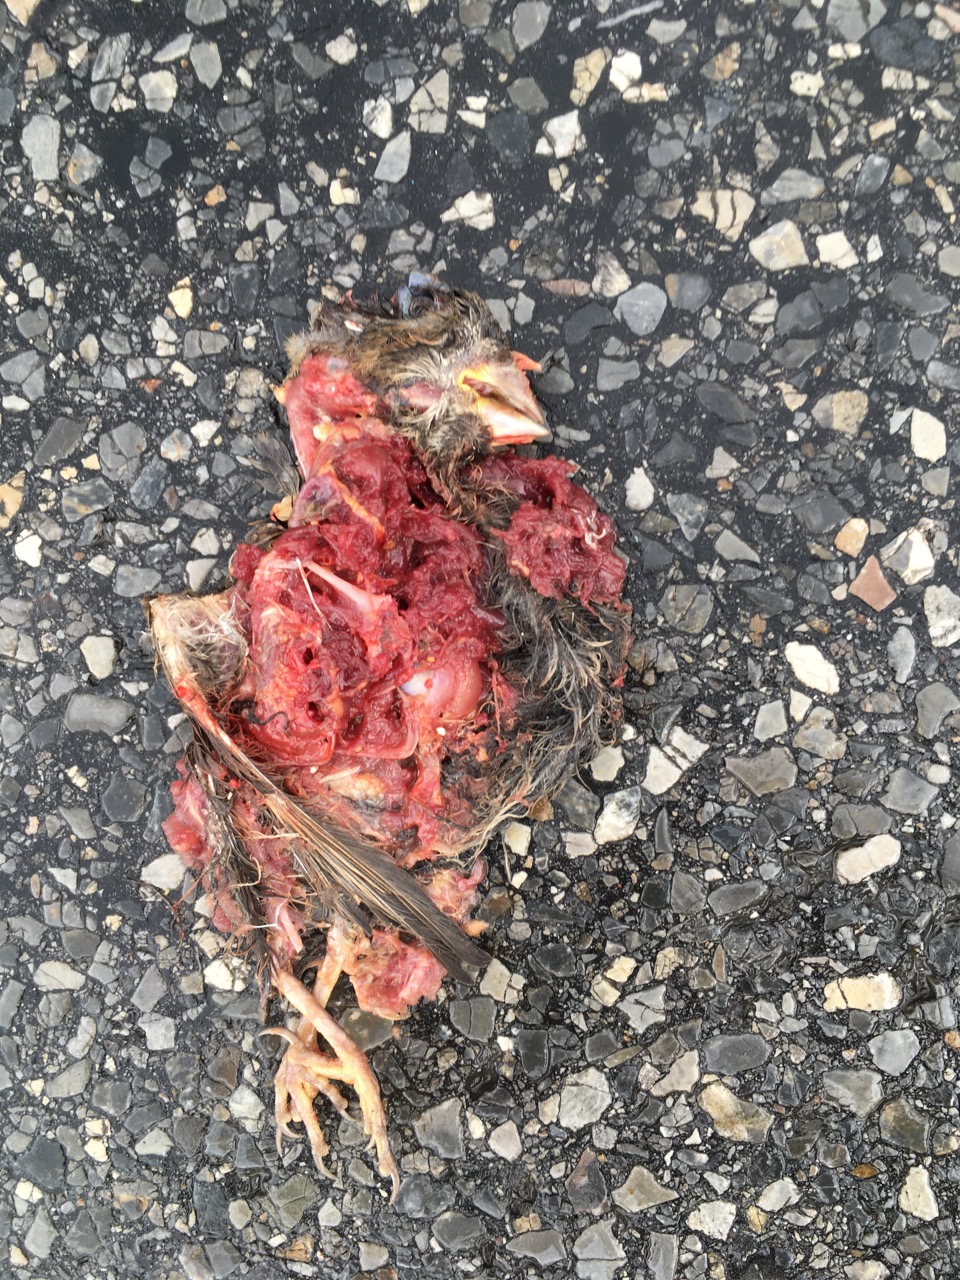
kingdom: Animalia
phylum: Chordata
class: Aves
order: Passeriformes
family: Passeridae
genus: Passer
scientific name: Passer
